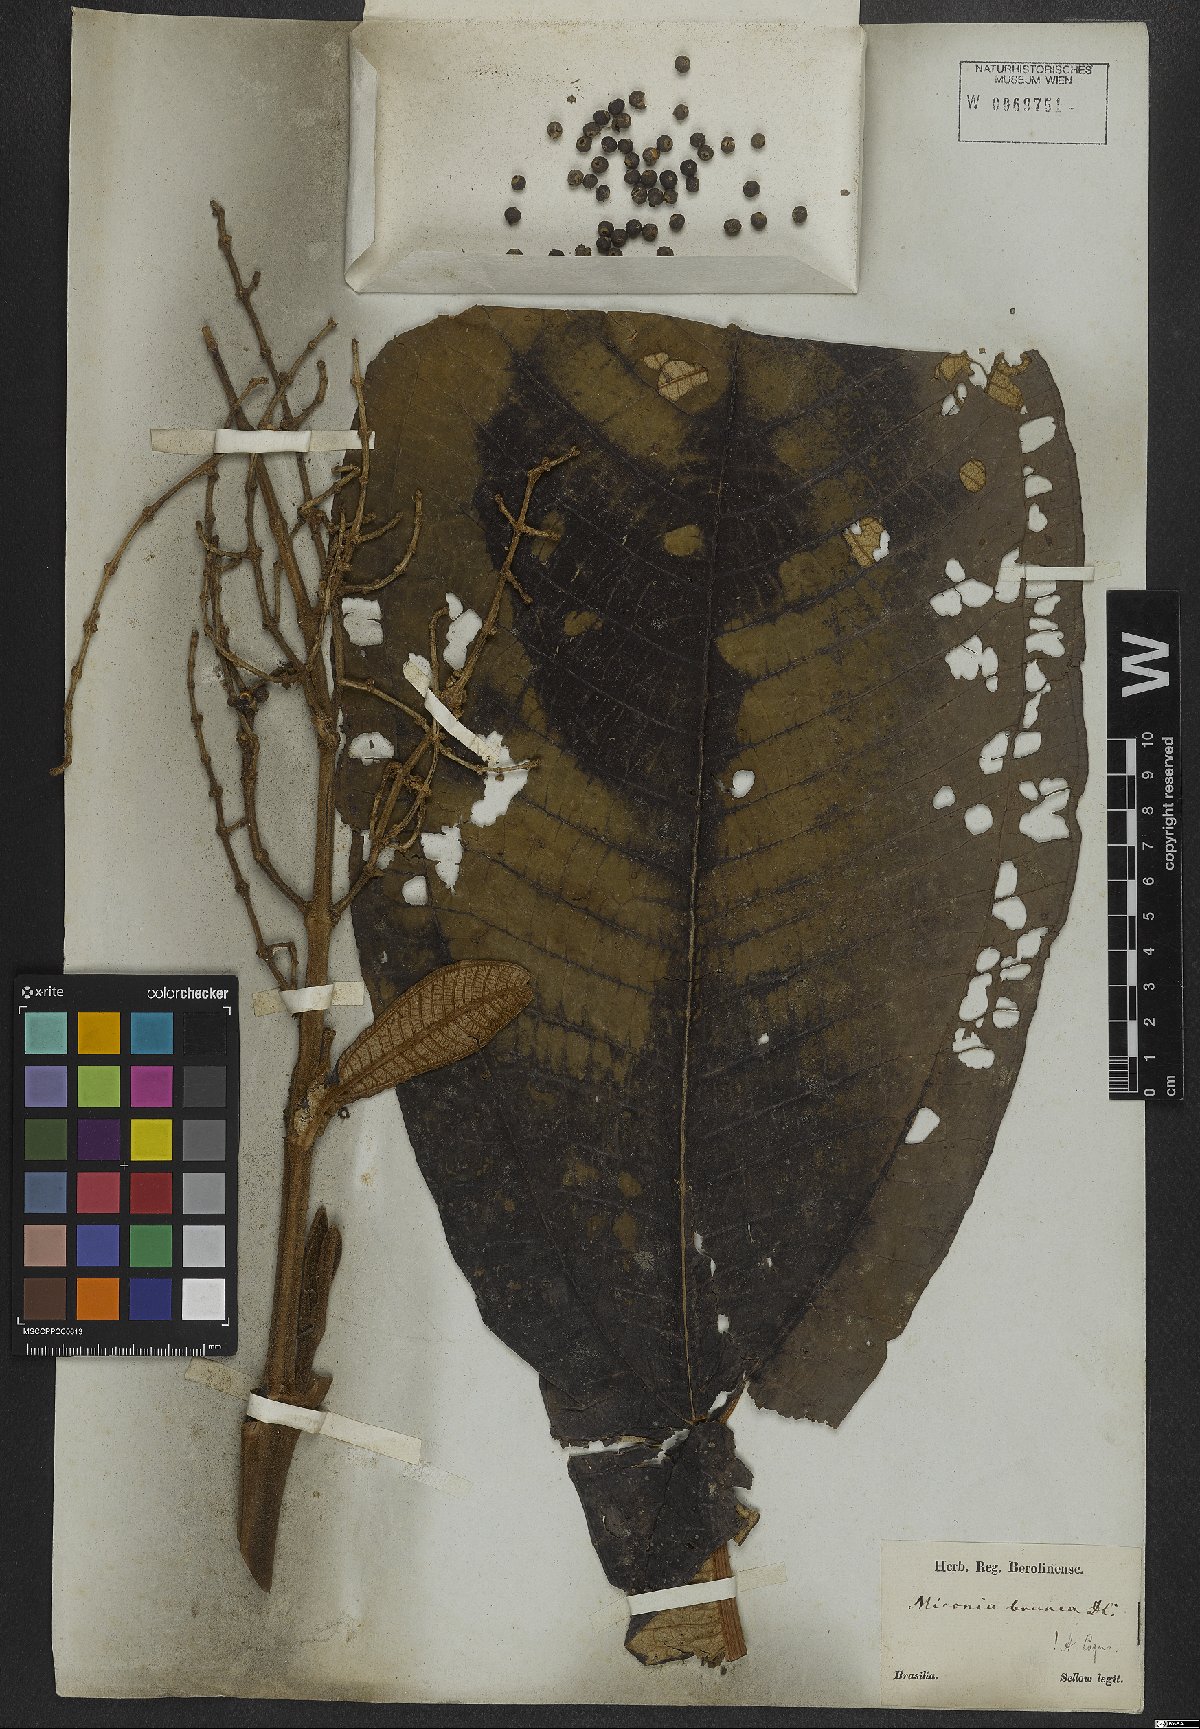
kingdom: Plantae
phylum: Tracheophyta
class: Magnoliopsida
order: Myrtales
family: Melastomataceae
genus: Miconia
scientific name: Miconia brunnea
